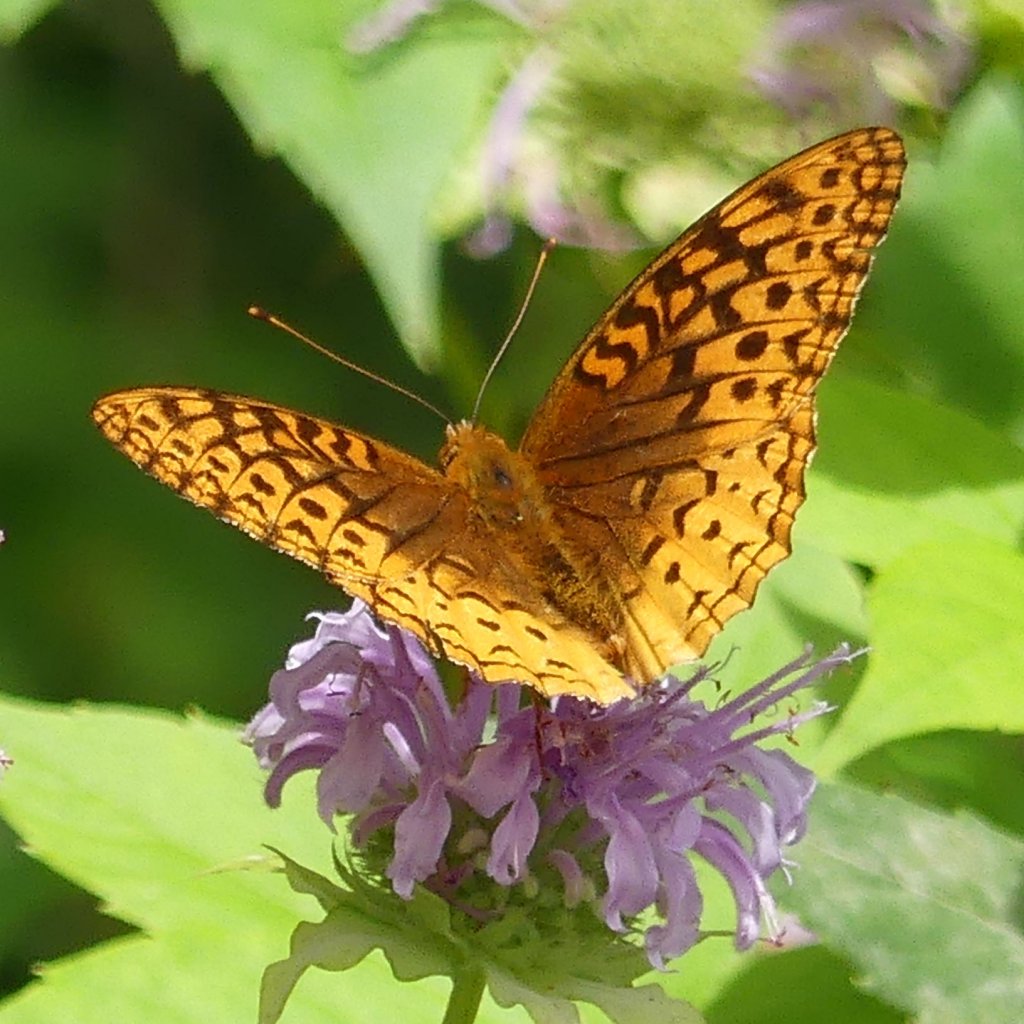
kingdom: Animalia
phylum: Arthropoda
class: Insecta
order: Lepidoptera
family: Nymphalidae
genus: Speyeria
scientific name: Speyeria cybele
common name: Great Spangled Fritillary
